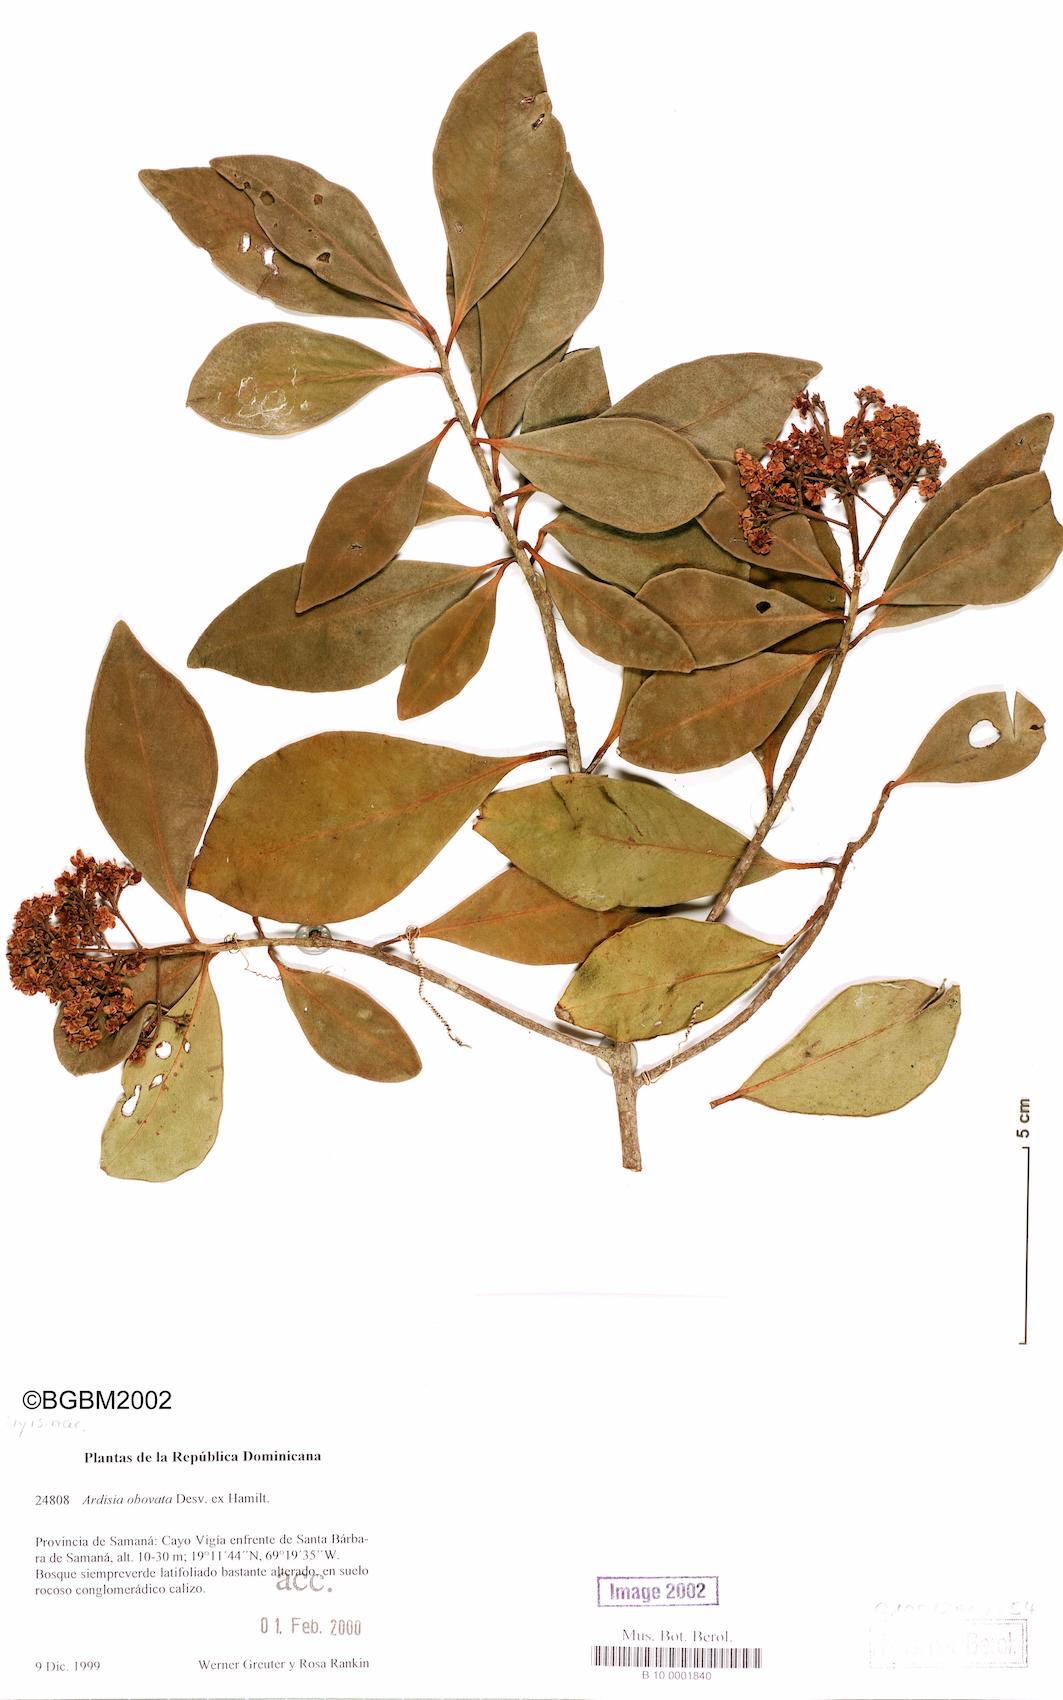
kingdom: Plantae
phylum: Tracheophyta
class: Magnoliopsida
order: Ericales
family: Primulaceae
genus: Ardisia
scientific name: Ardisia obovata
